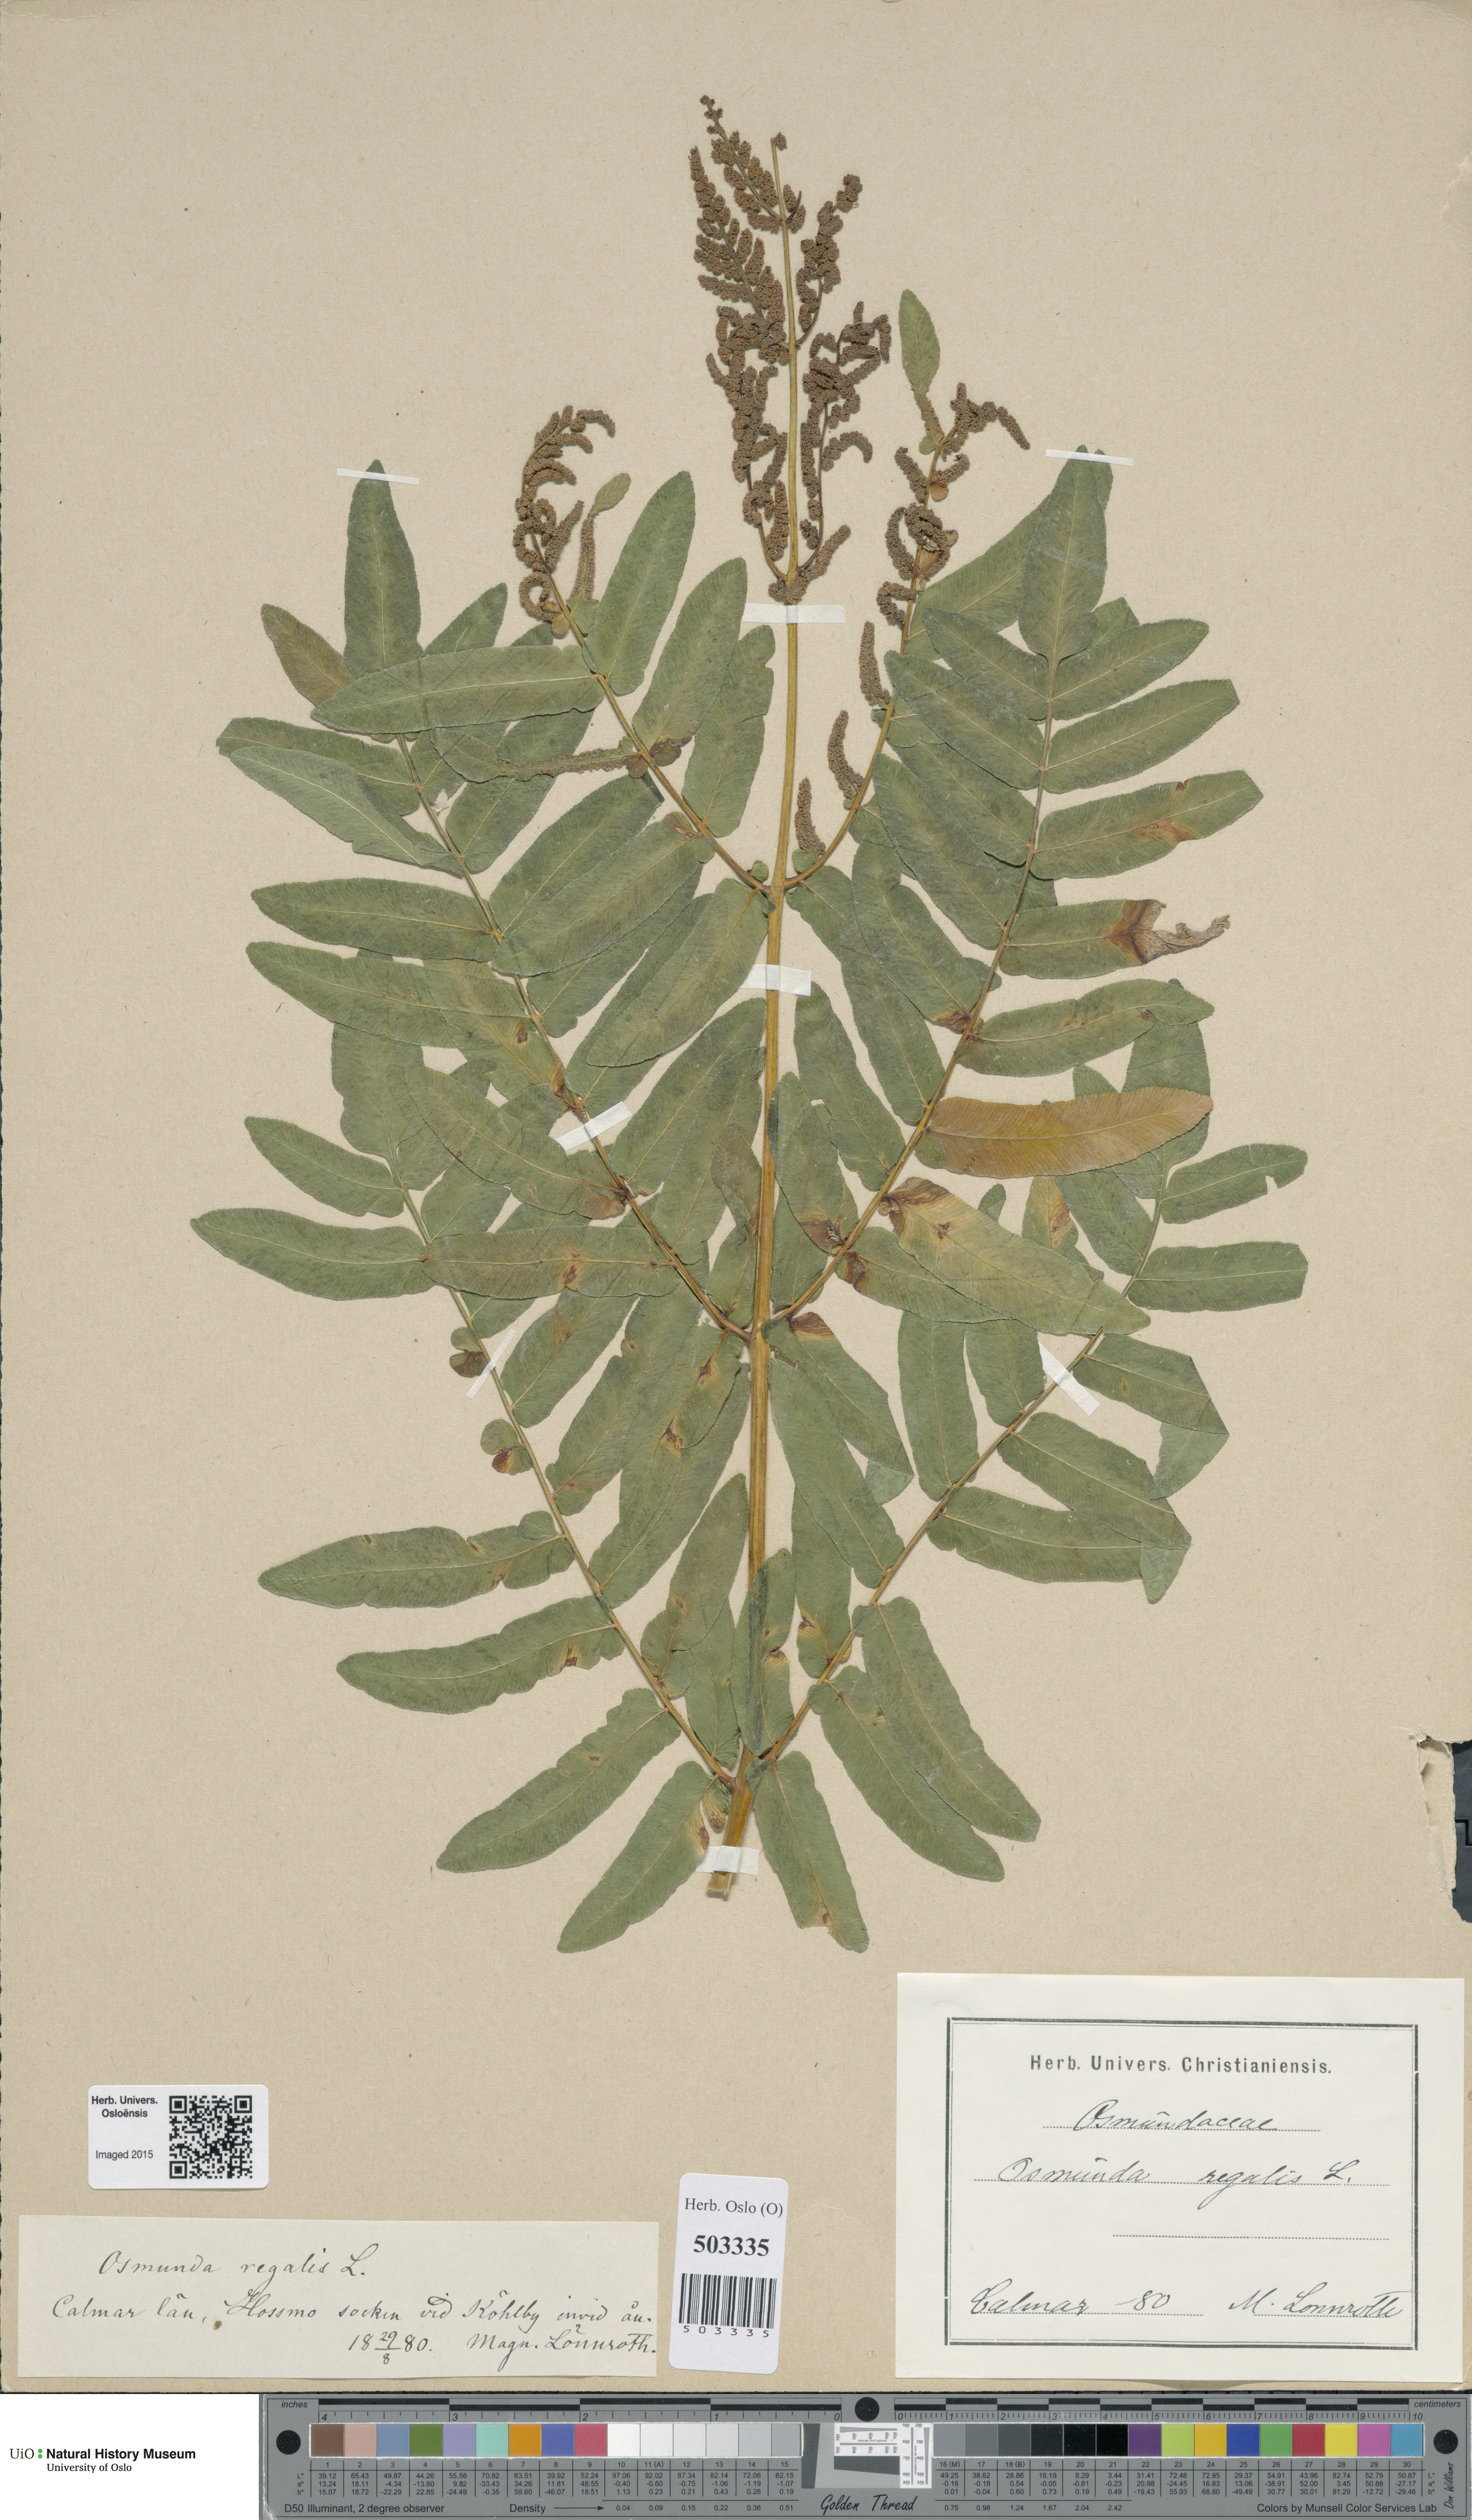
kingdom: Plantae
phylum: Tracheophyta
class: Polypodiopsida
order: Osmundales
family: Osmundaceae
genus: Osmunda
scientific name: Osmunda regalis
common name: Royal fern
